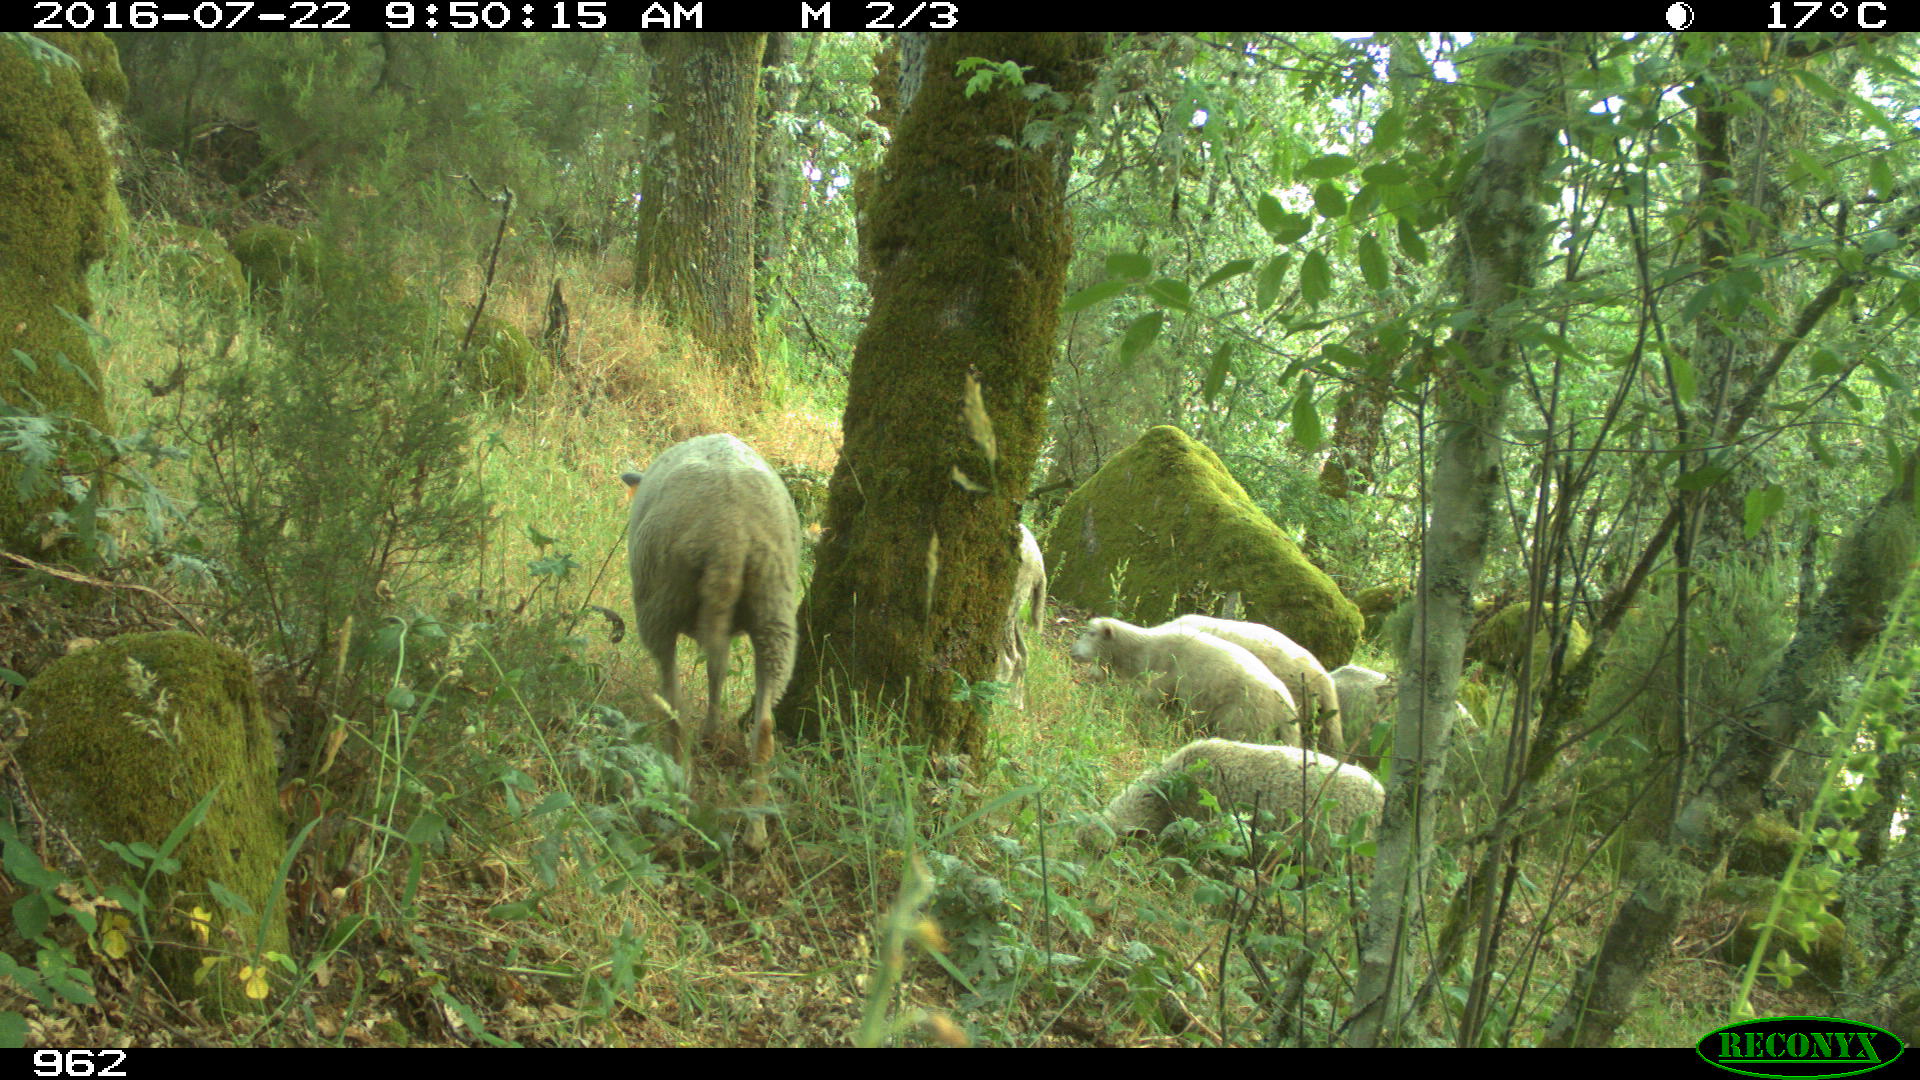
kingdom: Animalia
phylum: Chordata
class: Mammalia
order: Artiodactyla
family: Bovidae
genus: Ovis
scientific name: Ovis aries
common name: Domestic sheep
